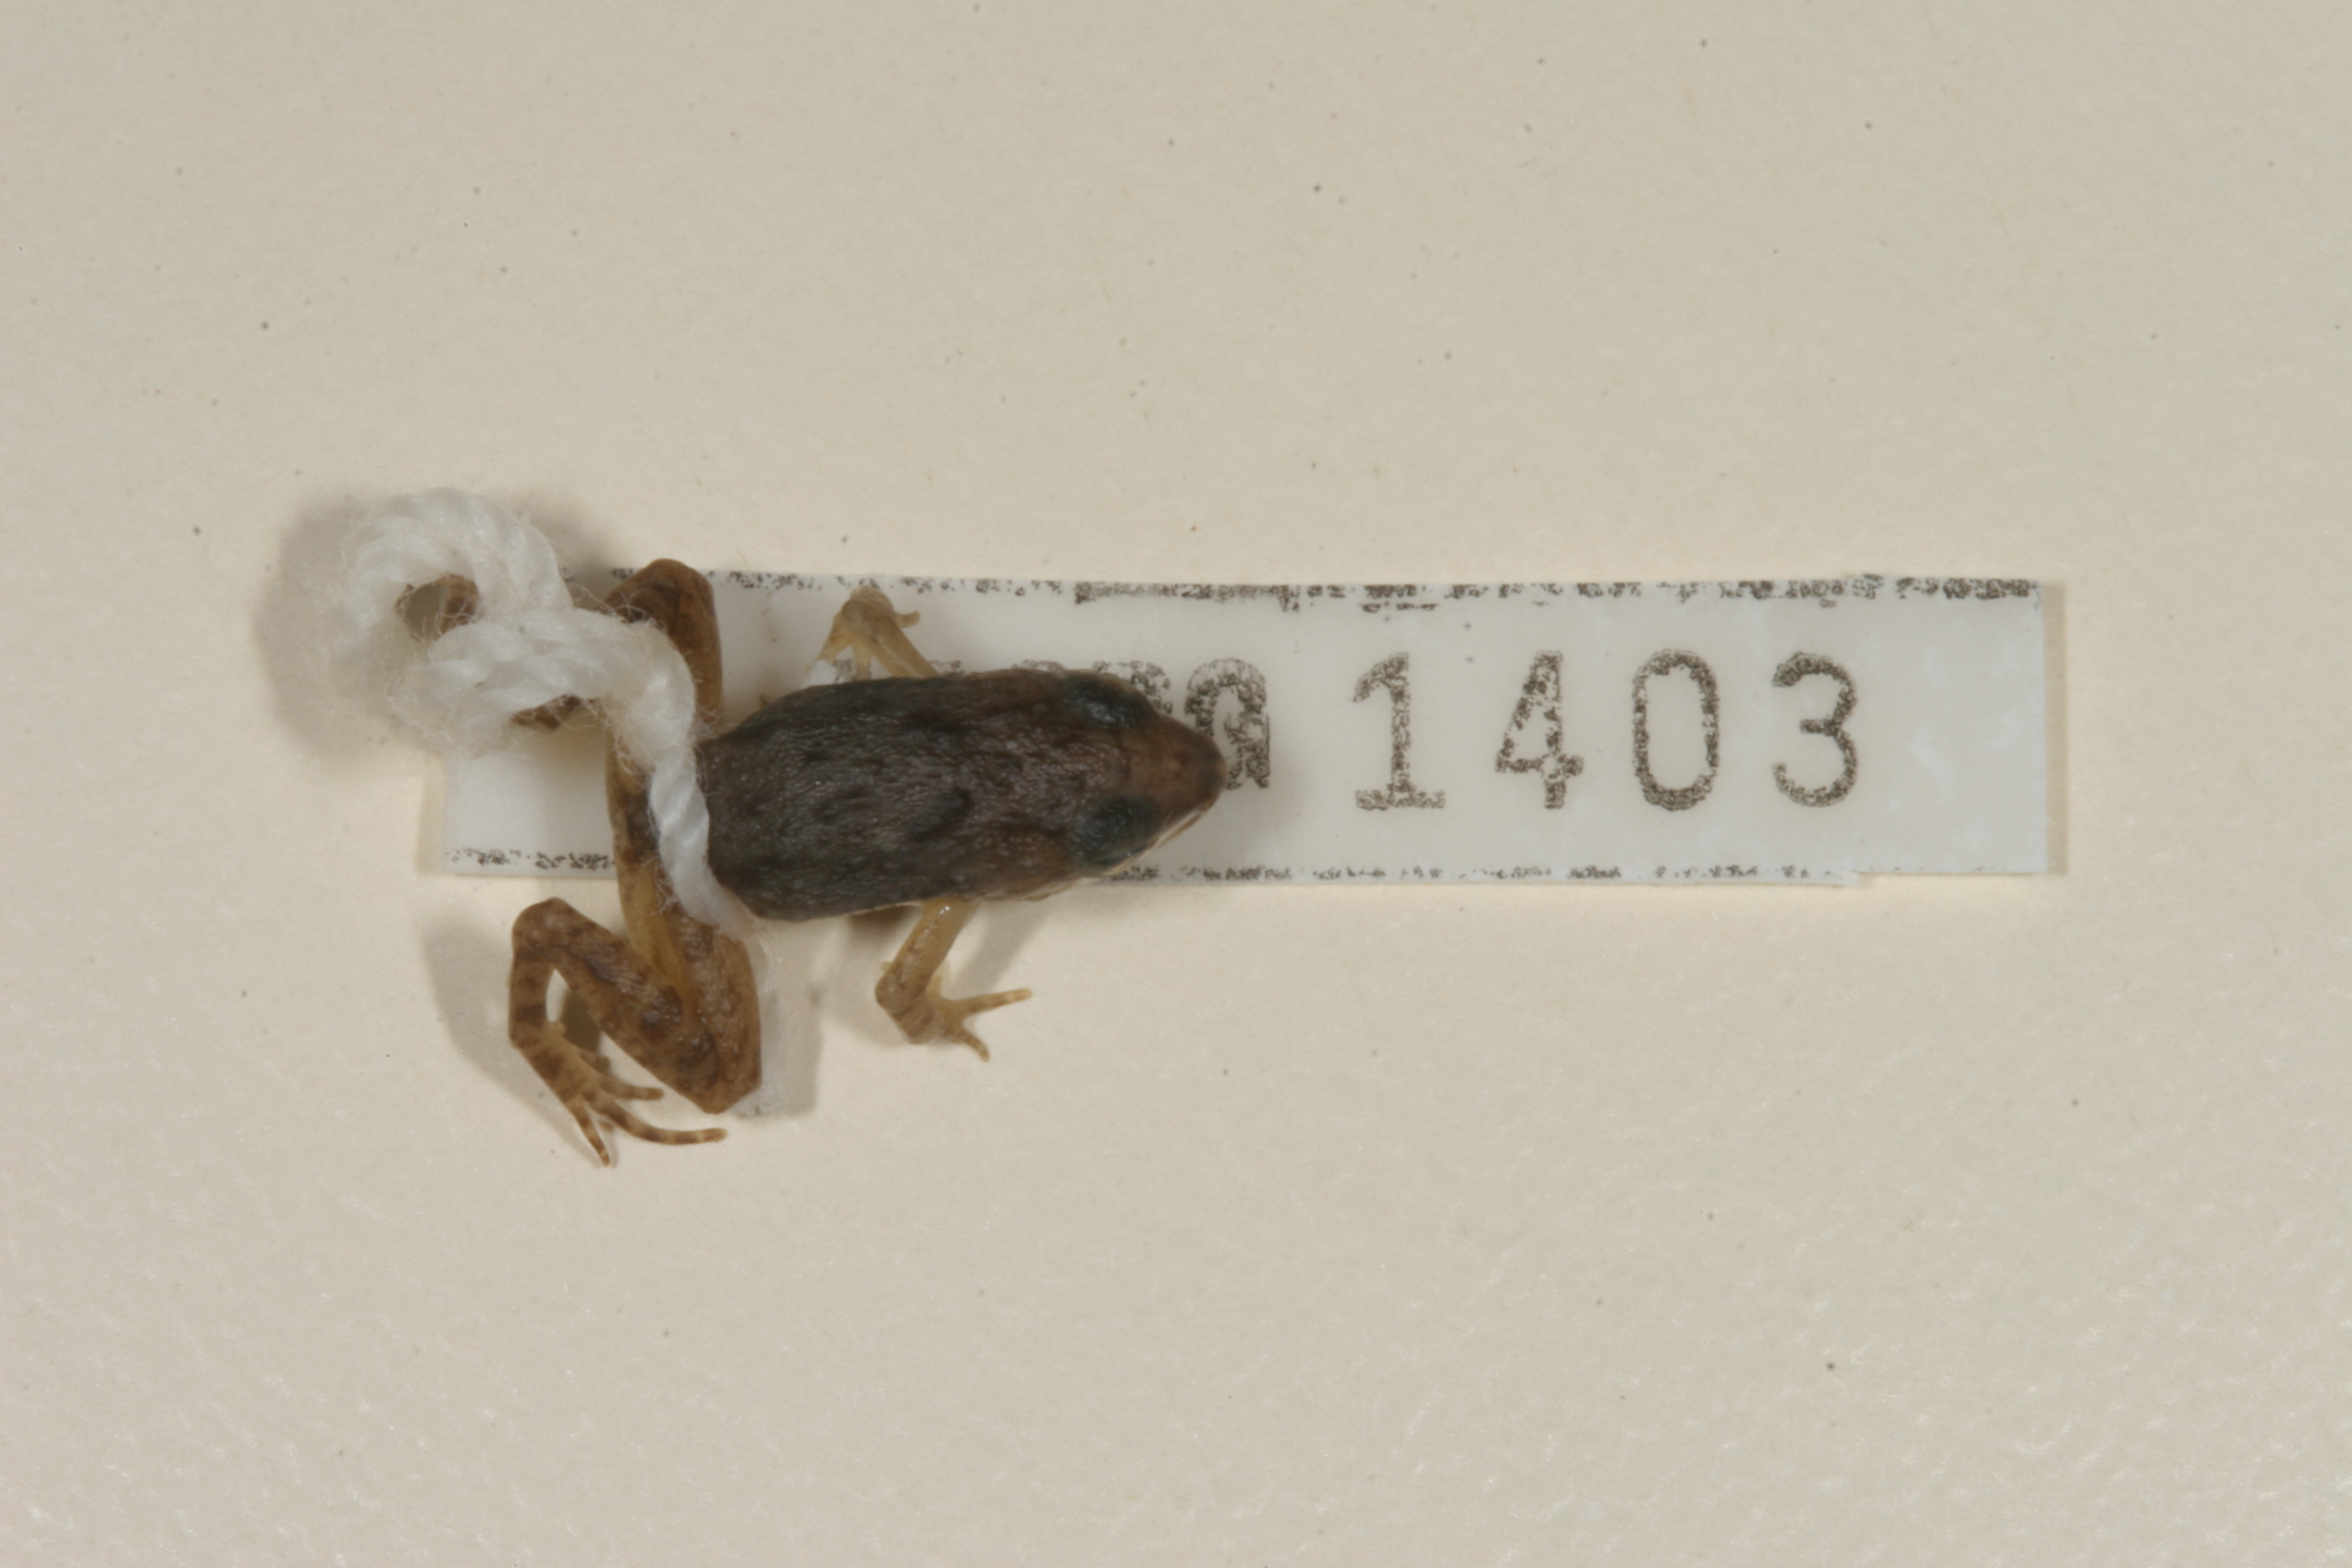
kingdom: Animalia
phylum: Chordata
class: Amphibia
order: Anura
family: Phrynobatrachidae
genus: Phrynobatrachus
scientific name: Phrynobatrachus mababiensis
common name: Dwarf puddle frog
